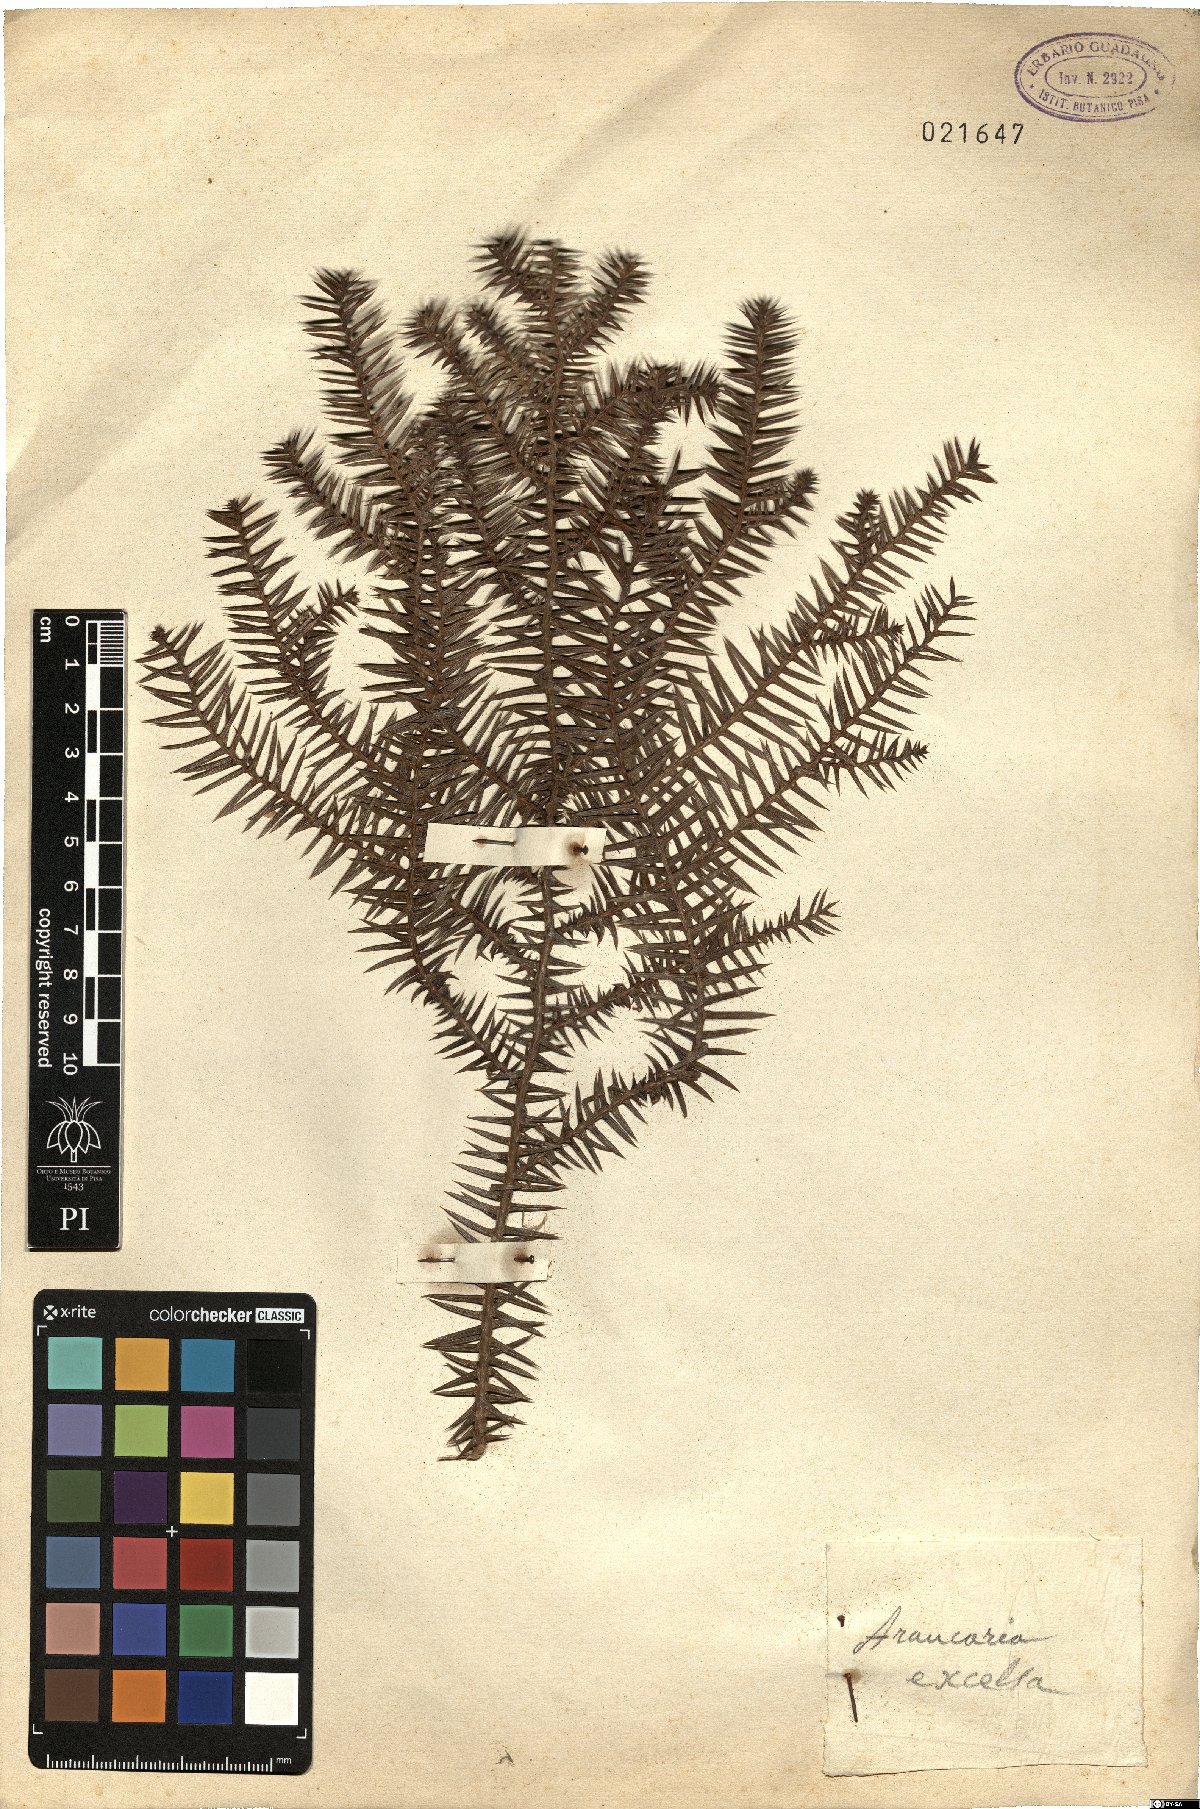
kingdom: Plantae
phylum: Tracheophyta
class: Pinopsida
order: Pinales
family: Araucariaceae
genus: Araucaria
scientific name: Araucaria columnaris
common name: Coral reef araucaria
